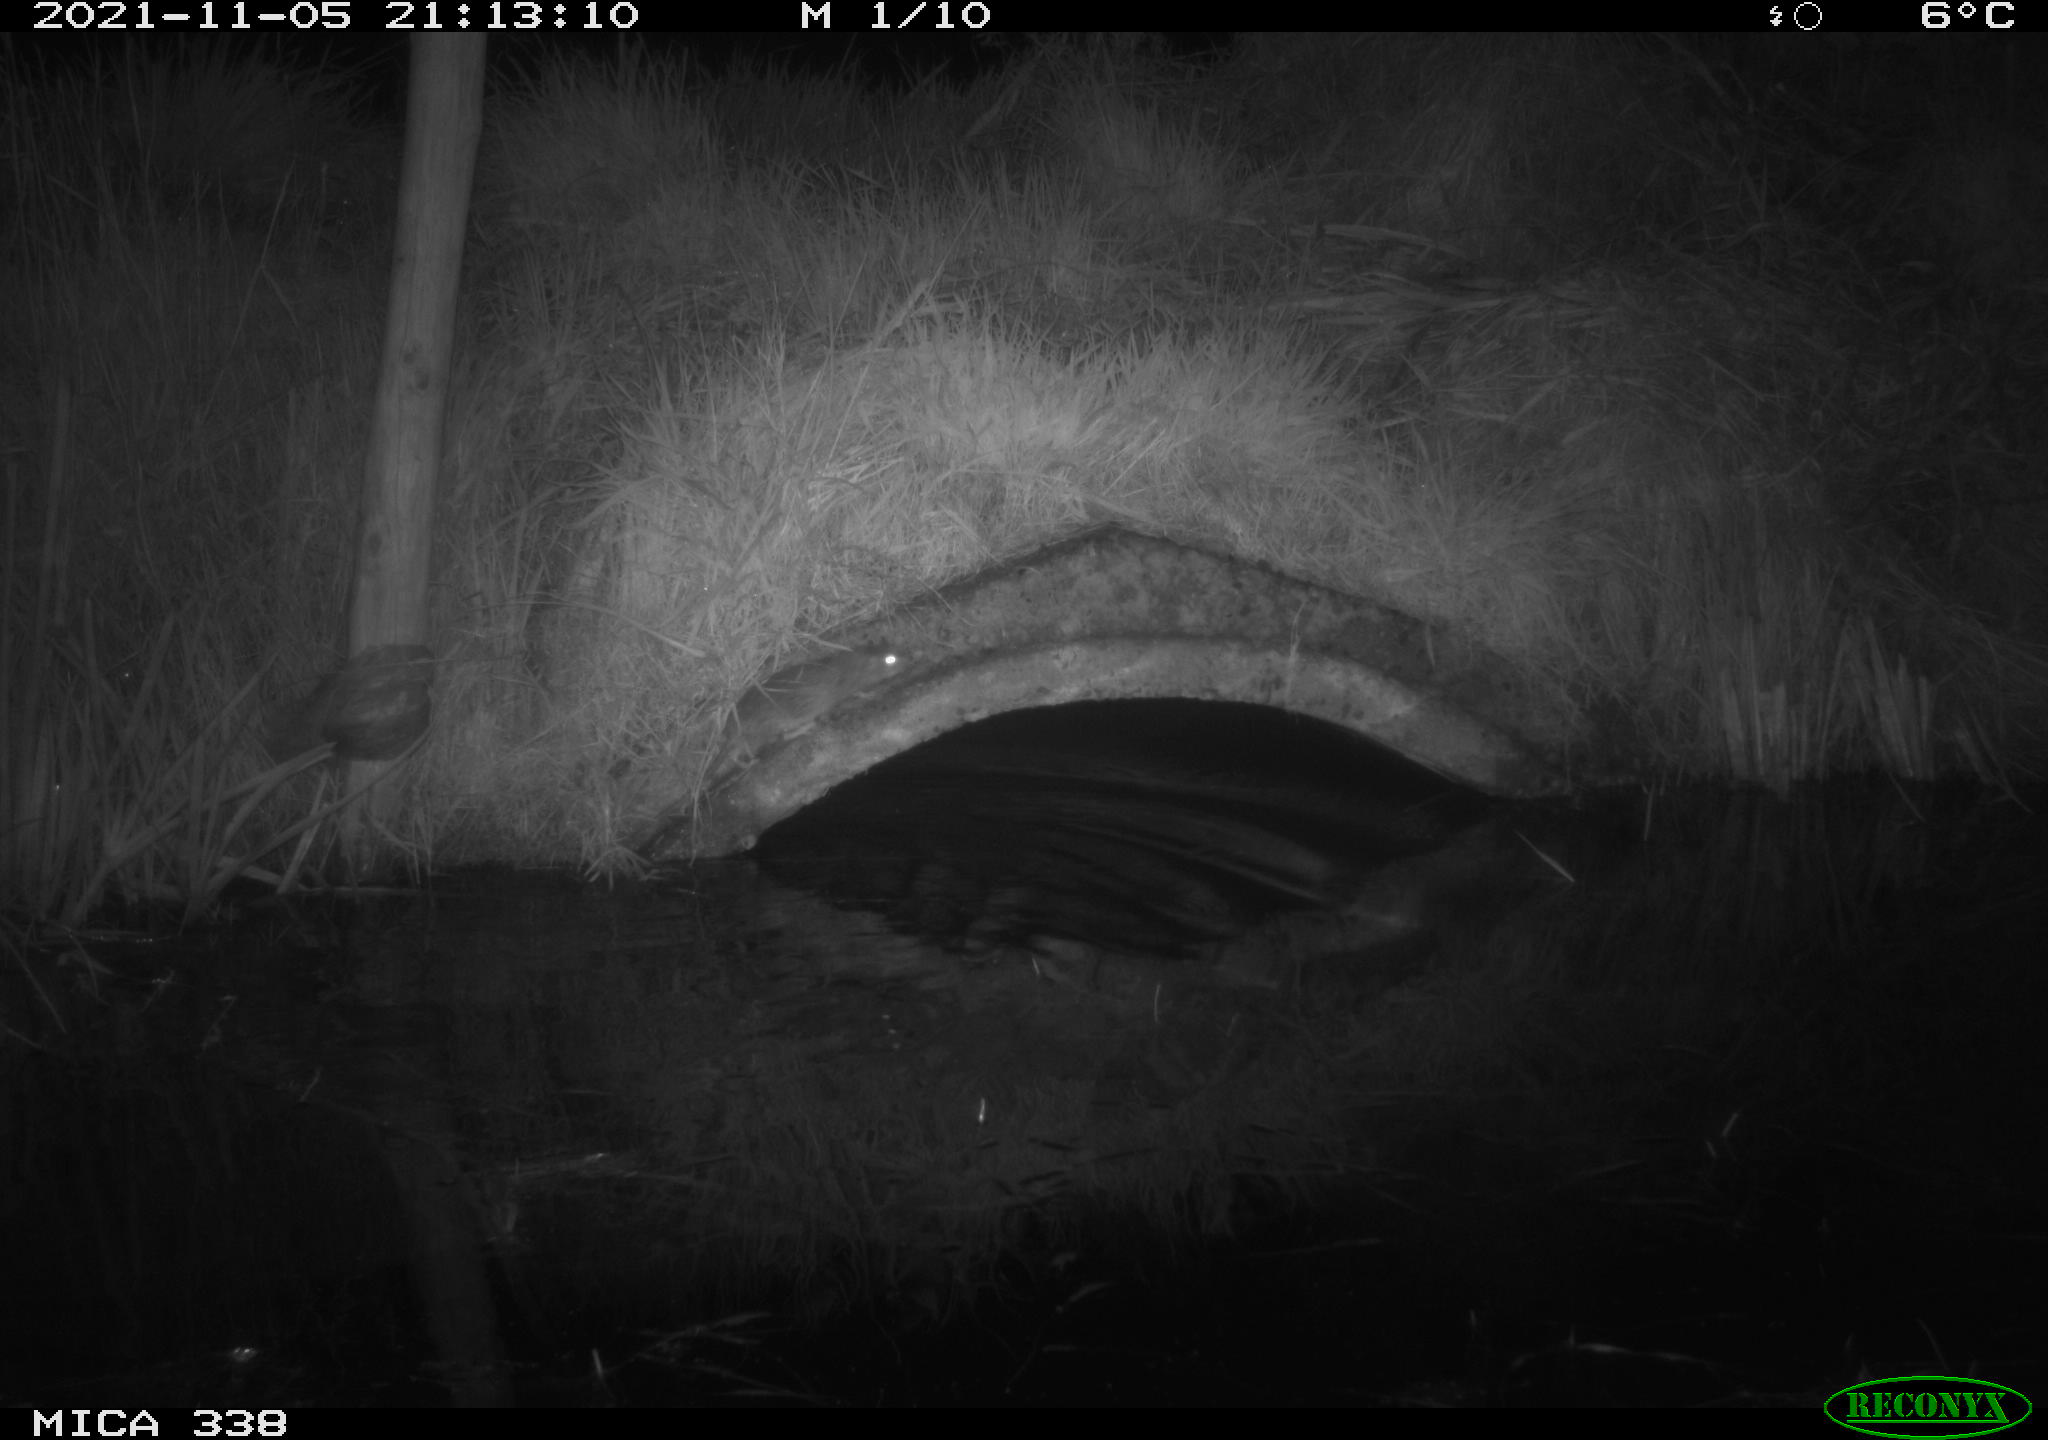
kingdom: Animalia
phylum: Chordata
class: Mammalia
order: Rodentia
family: Muridae
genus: Rattus
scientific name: Rattus norvegicus
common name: Brown rat
